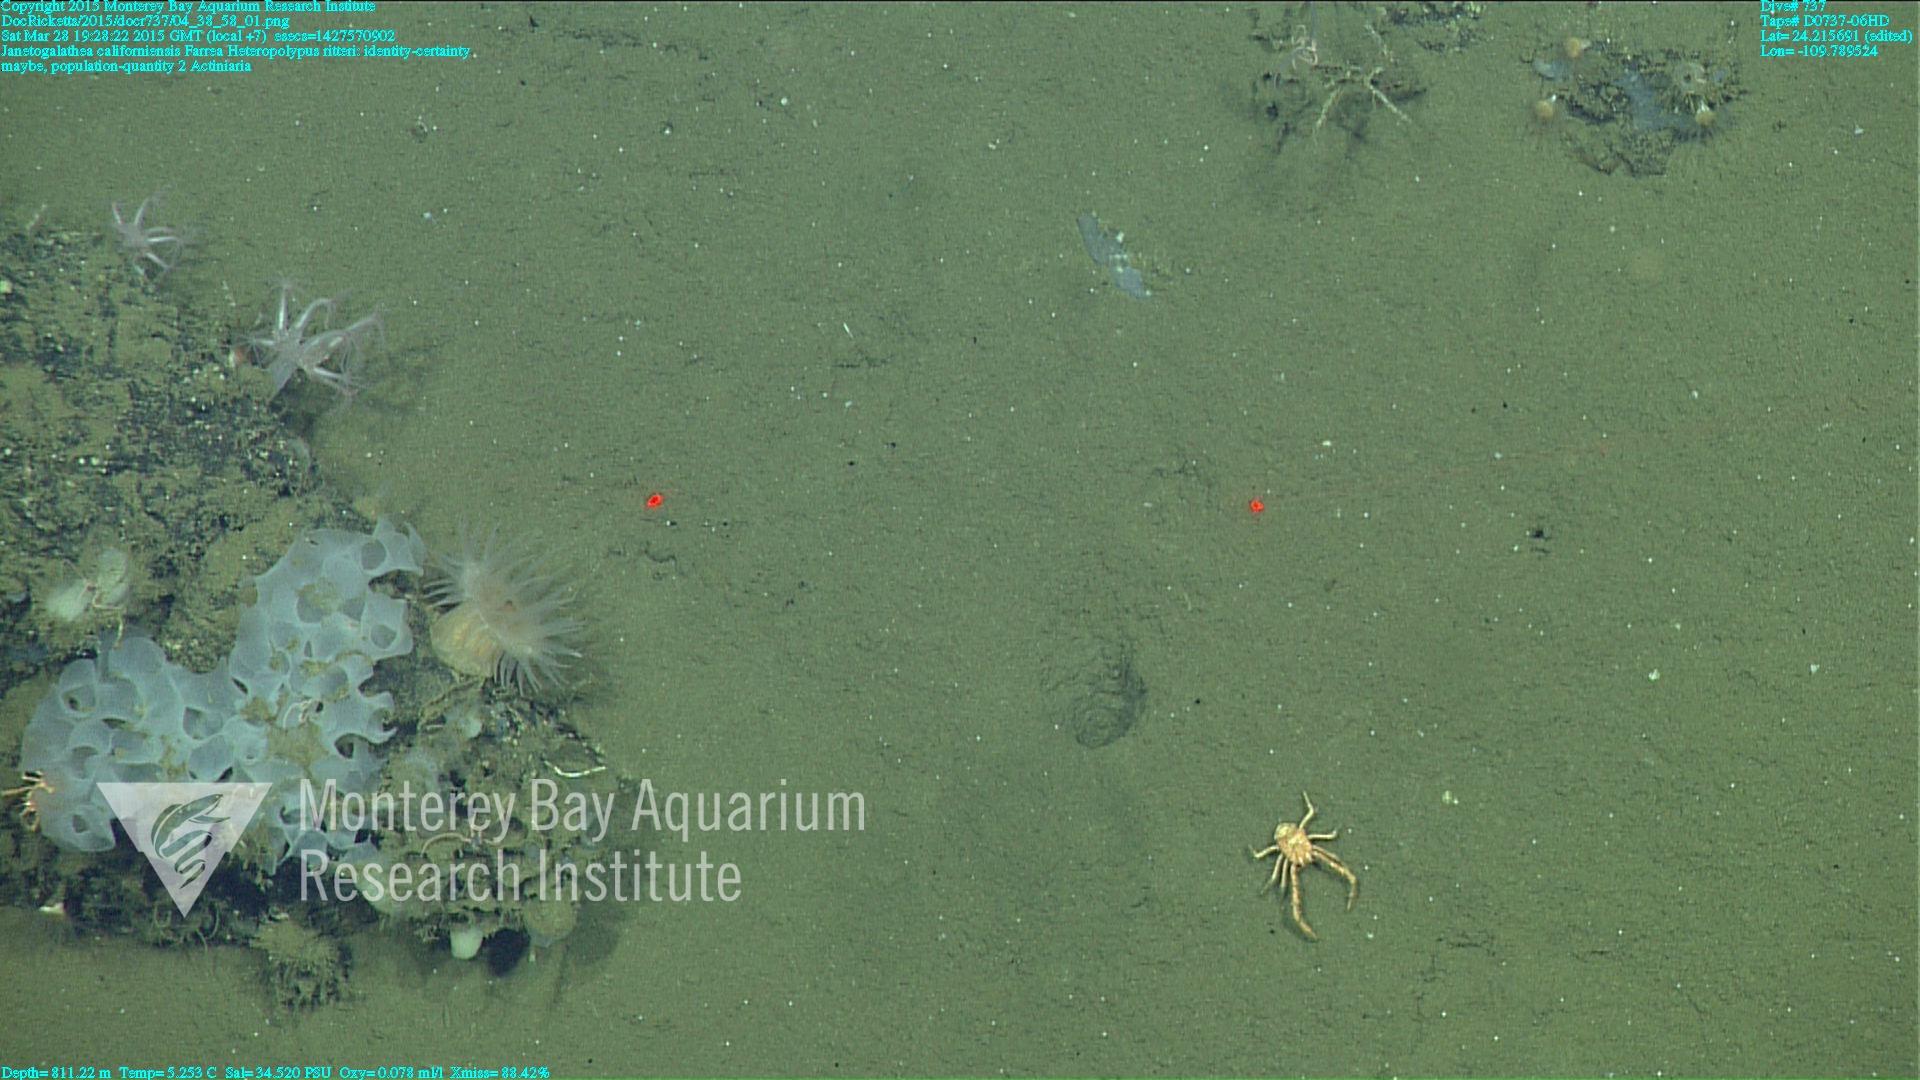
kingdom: Animalia
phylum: Cnidaria
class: Anthozoa
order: Scleralcyonacea
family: Coralliidae
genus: Heteropolypus
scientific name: Heteropolypus ritteri
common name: Ritter's soft coral
